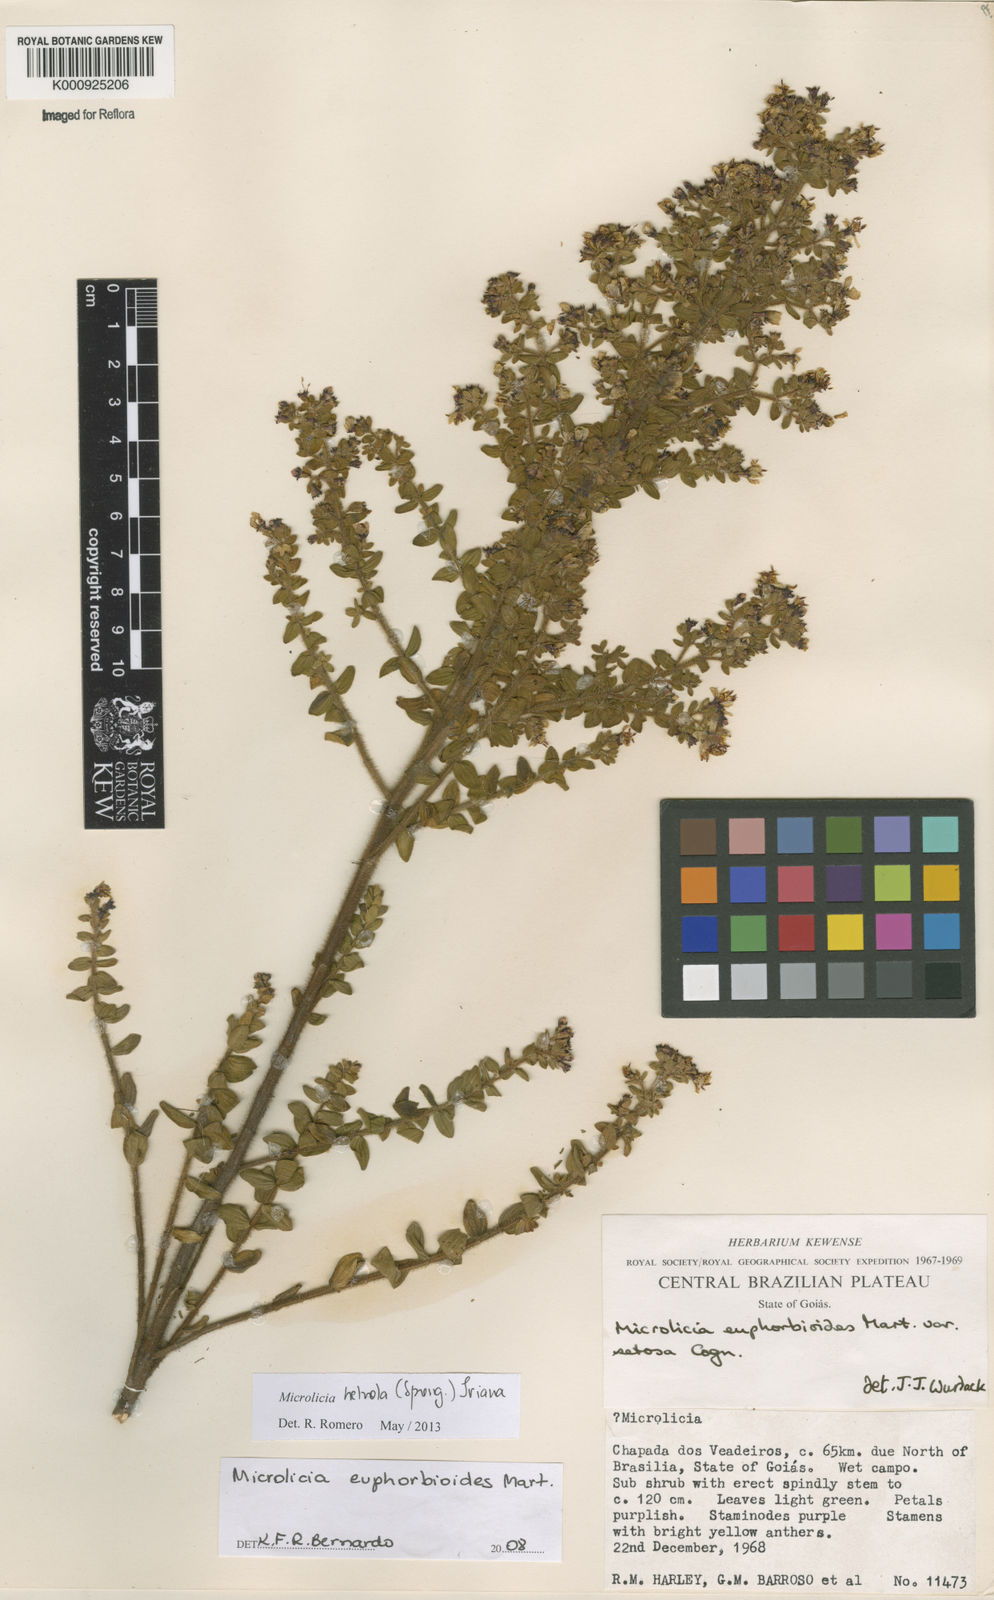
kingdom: Plantae
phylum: Tracheophyta
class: Magnoliopsida
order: Myrtales
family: Melastomataceae
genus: Microlicia
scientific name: Microlicia helvola
